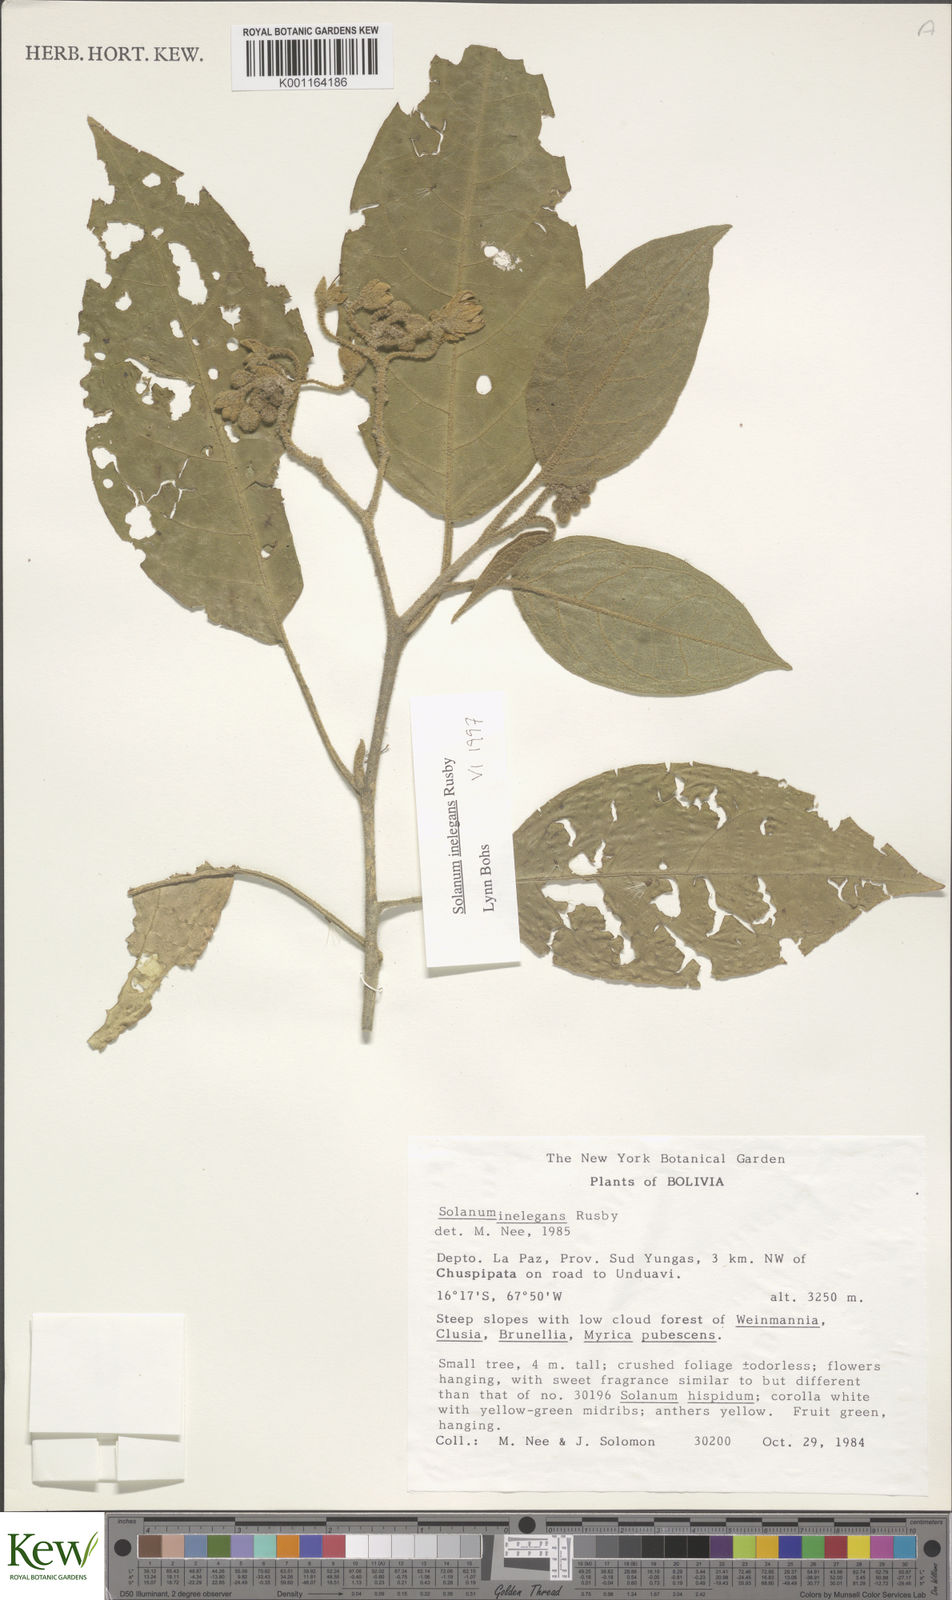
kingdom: Plantae
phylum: Tracheophyta
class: Magnoliopsida
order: Solanales
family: Solanaceae
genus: Solanum
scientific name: Solanum inelegans
